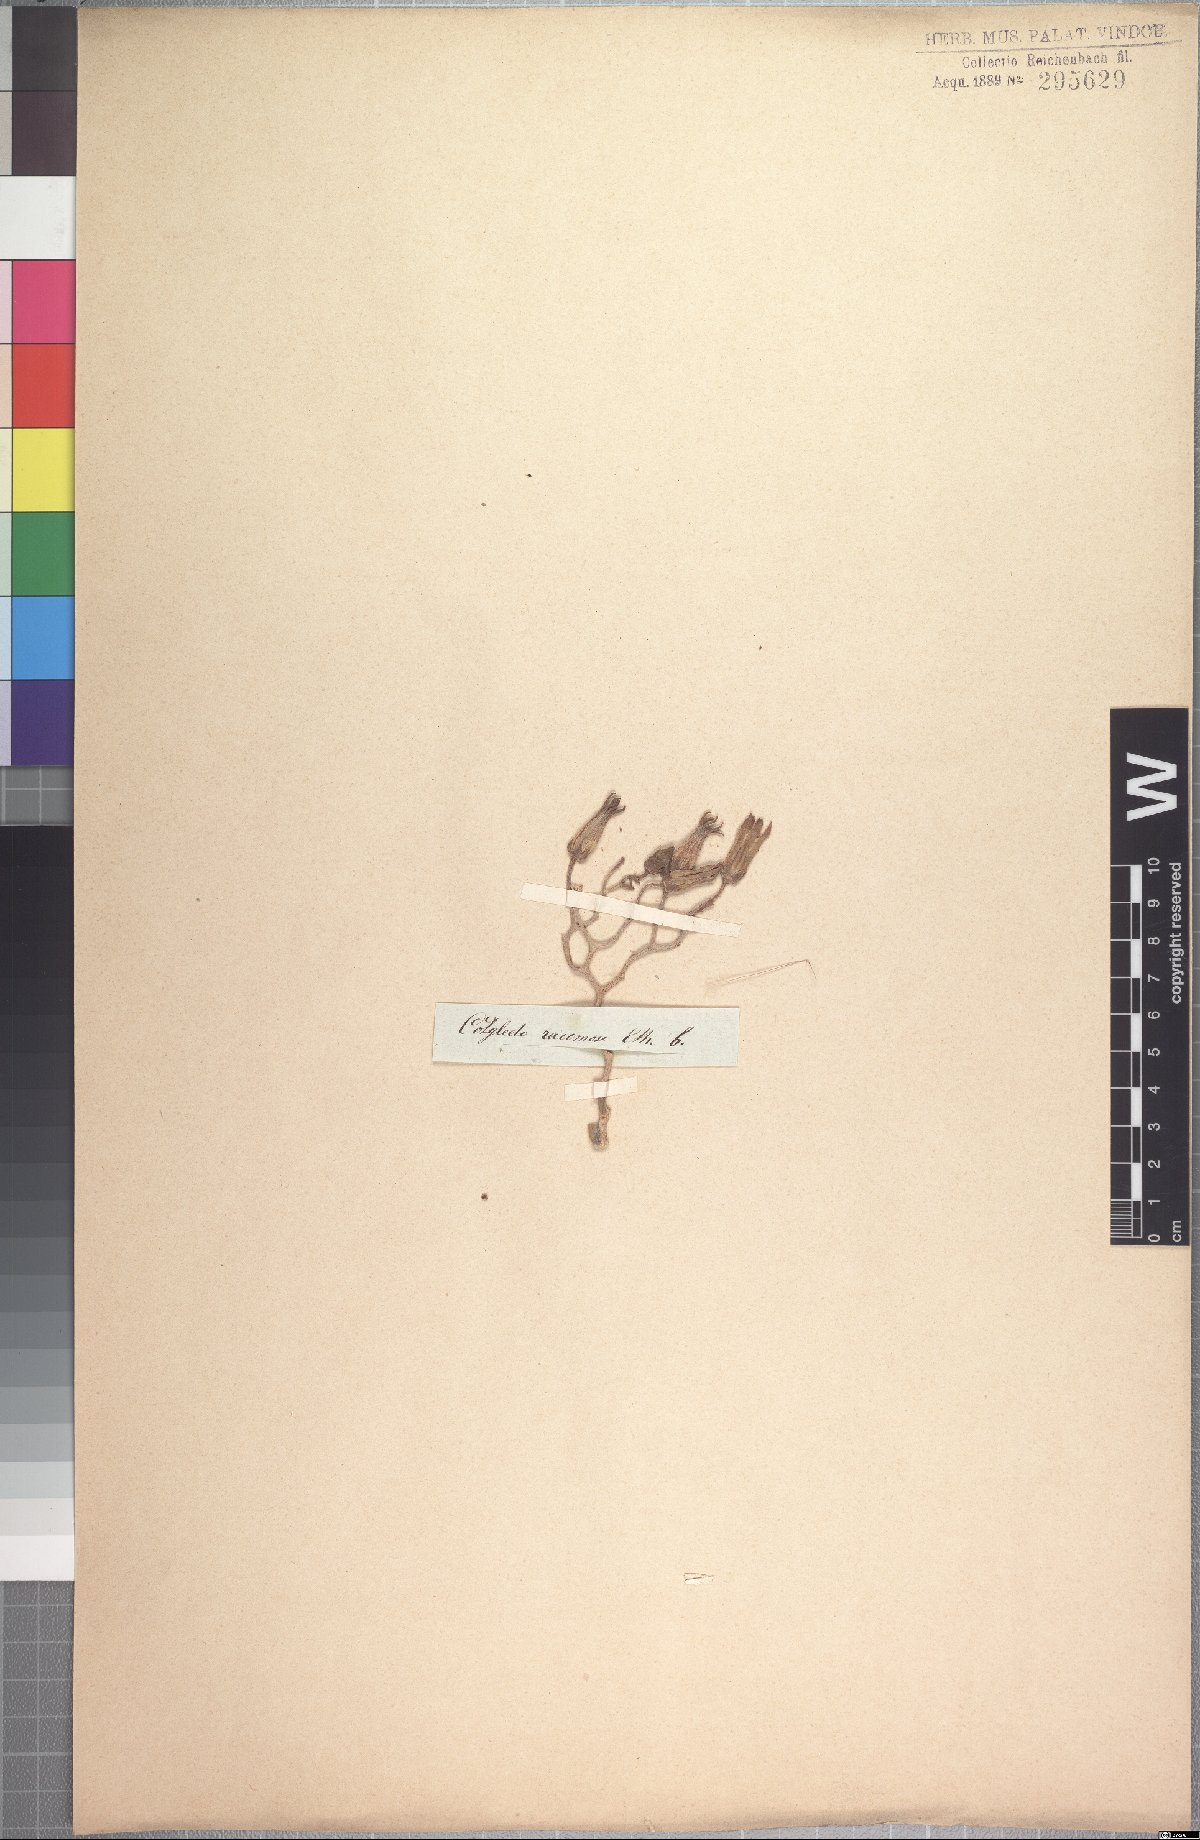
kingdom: Plantae
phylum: Tracheophyta
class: Magnoliopsida
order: Saxifragales
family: Crassulaceae
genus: Tylecodon
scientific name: Tylecodon hallii
